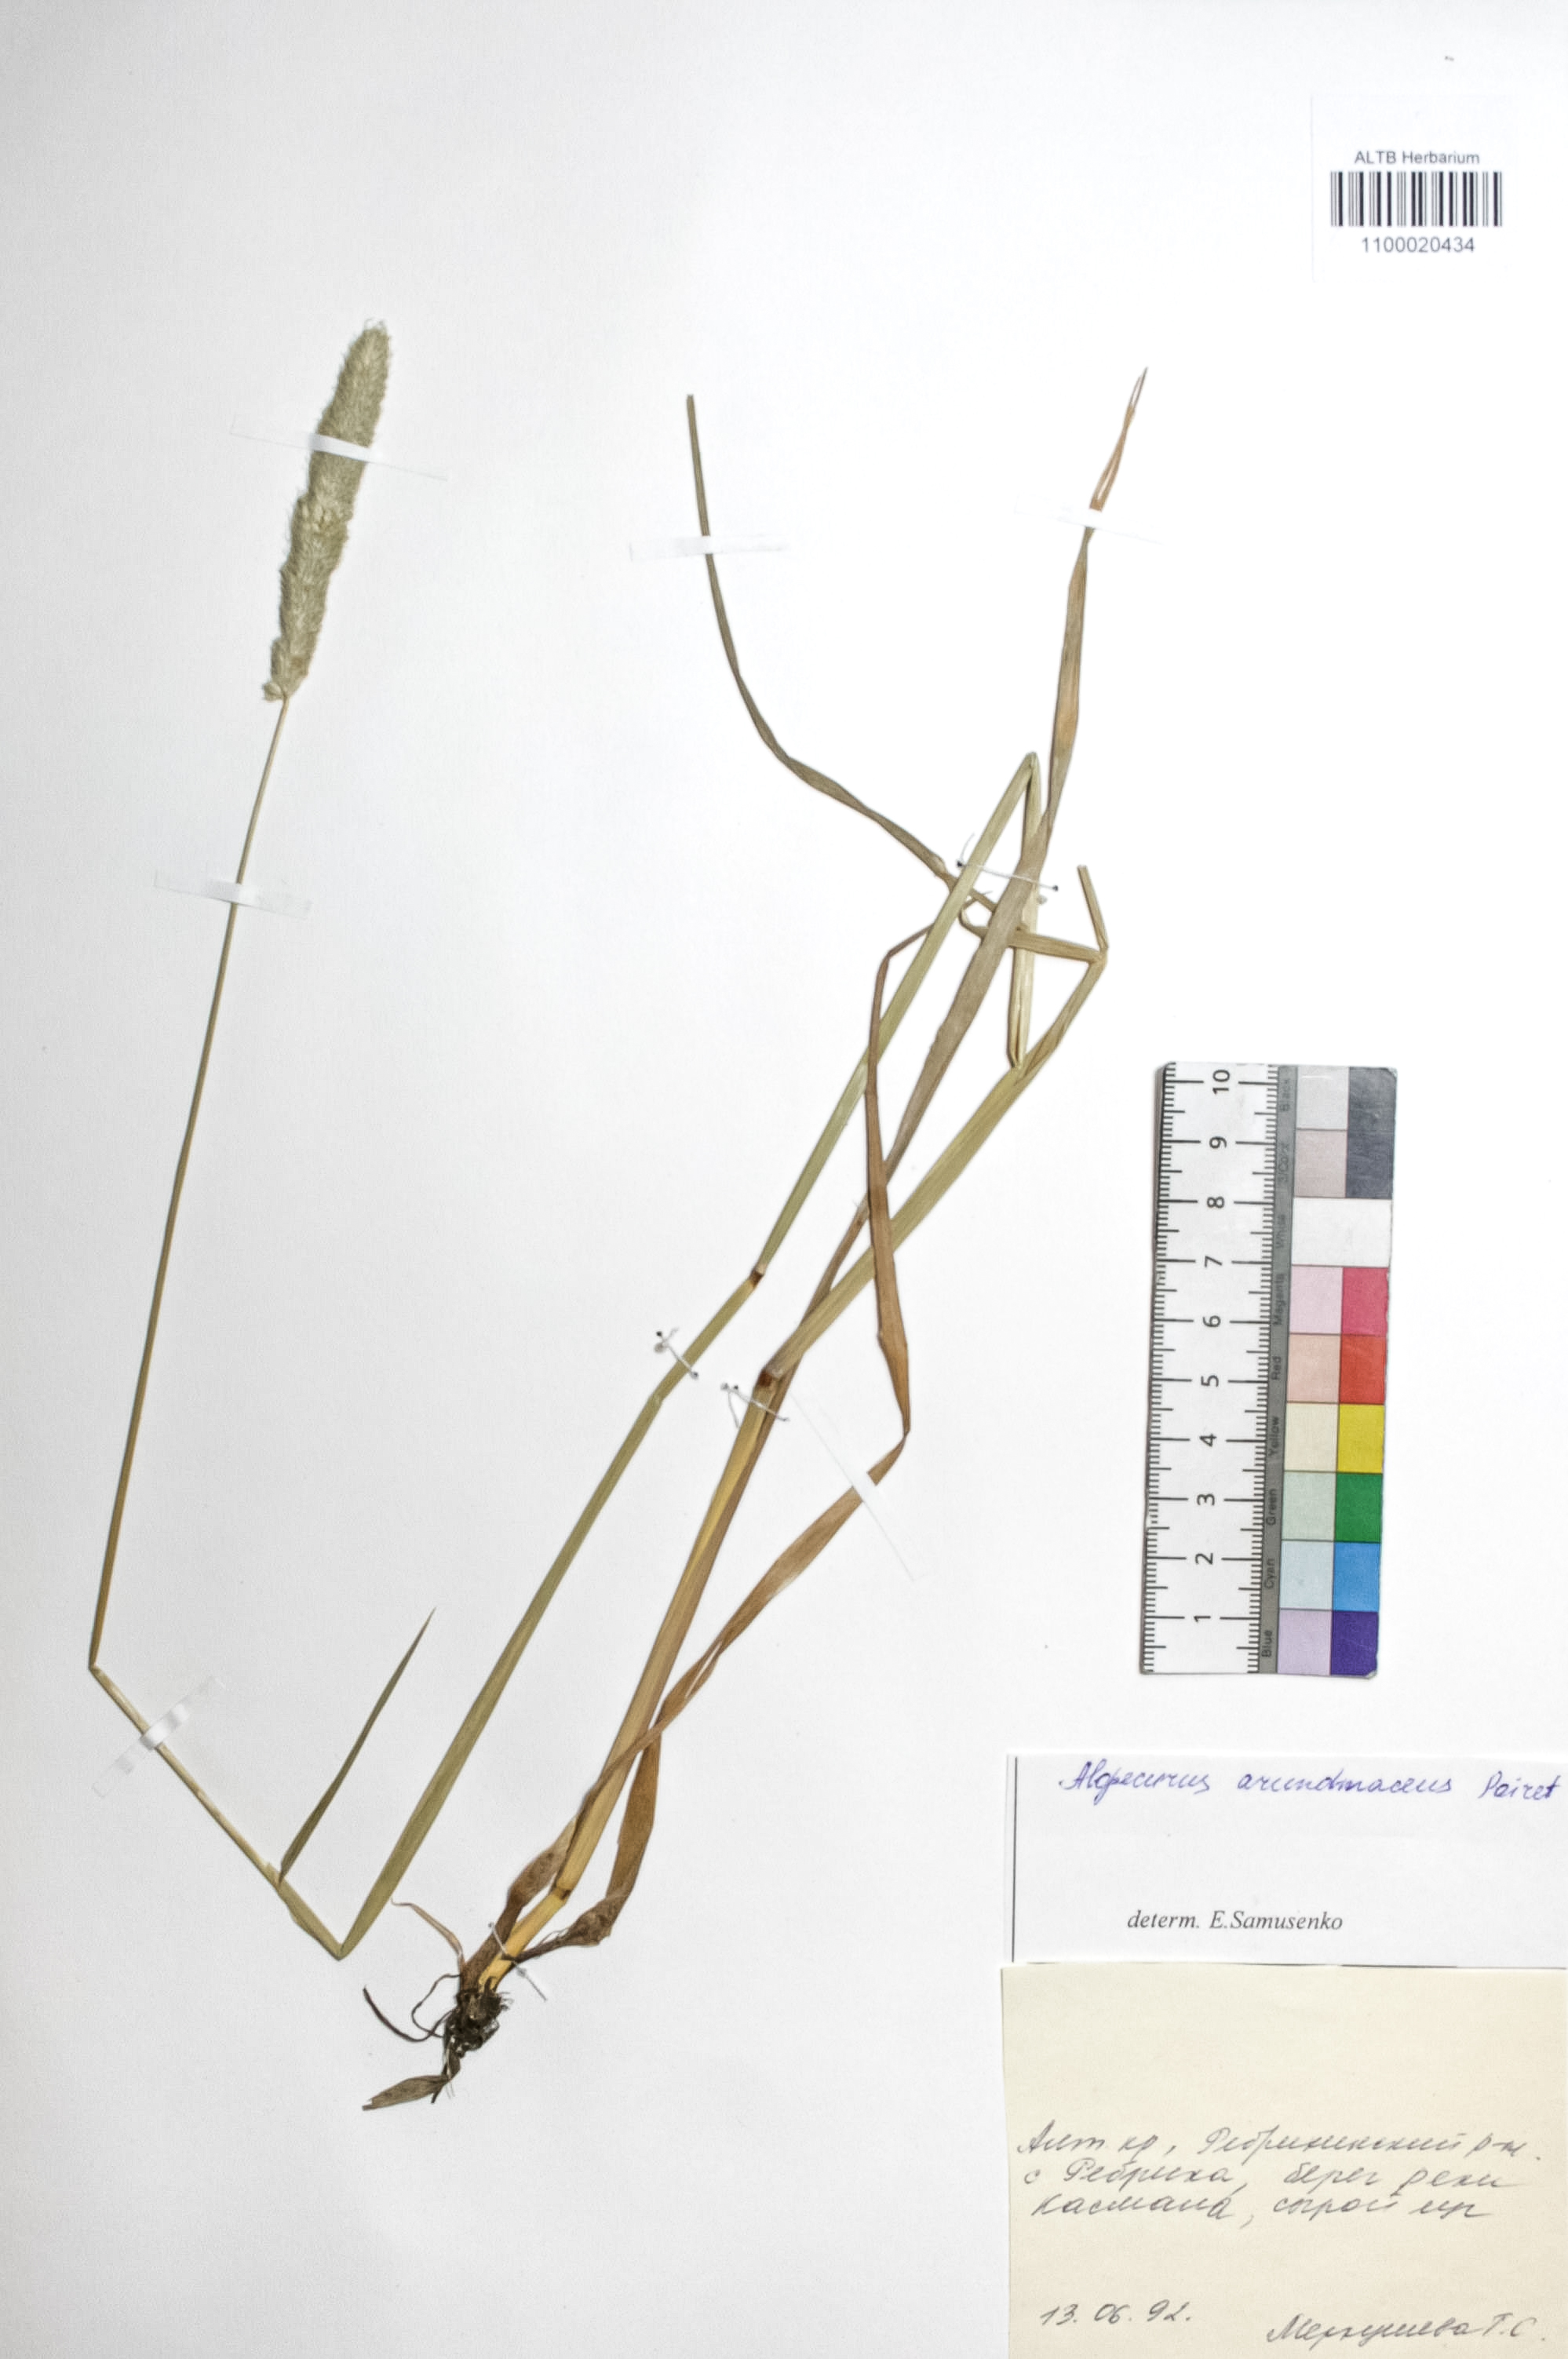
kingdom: Plantae
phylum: Tracheophyta
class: Liliopsida
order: Poales
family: Poaceae
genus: Alopecurus
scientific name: Alopecurus arundinaceus
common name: Creeping meadow foxtail
